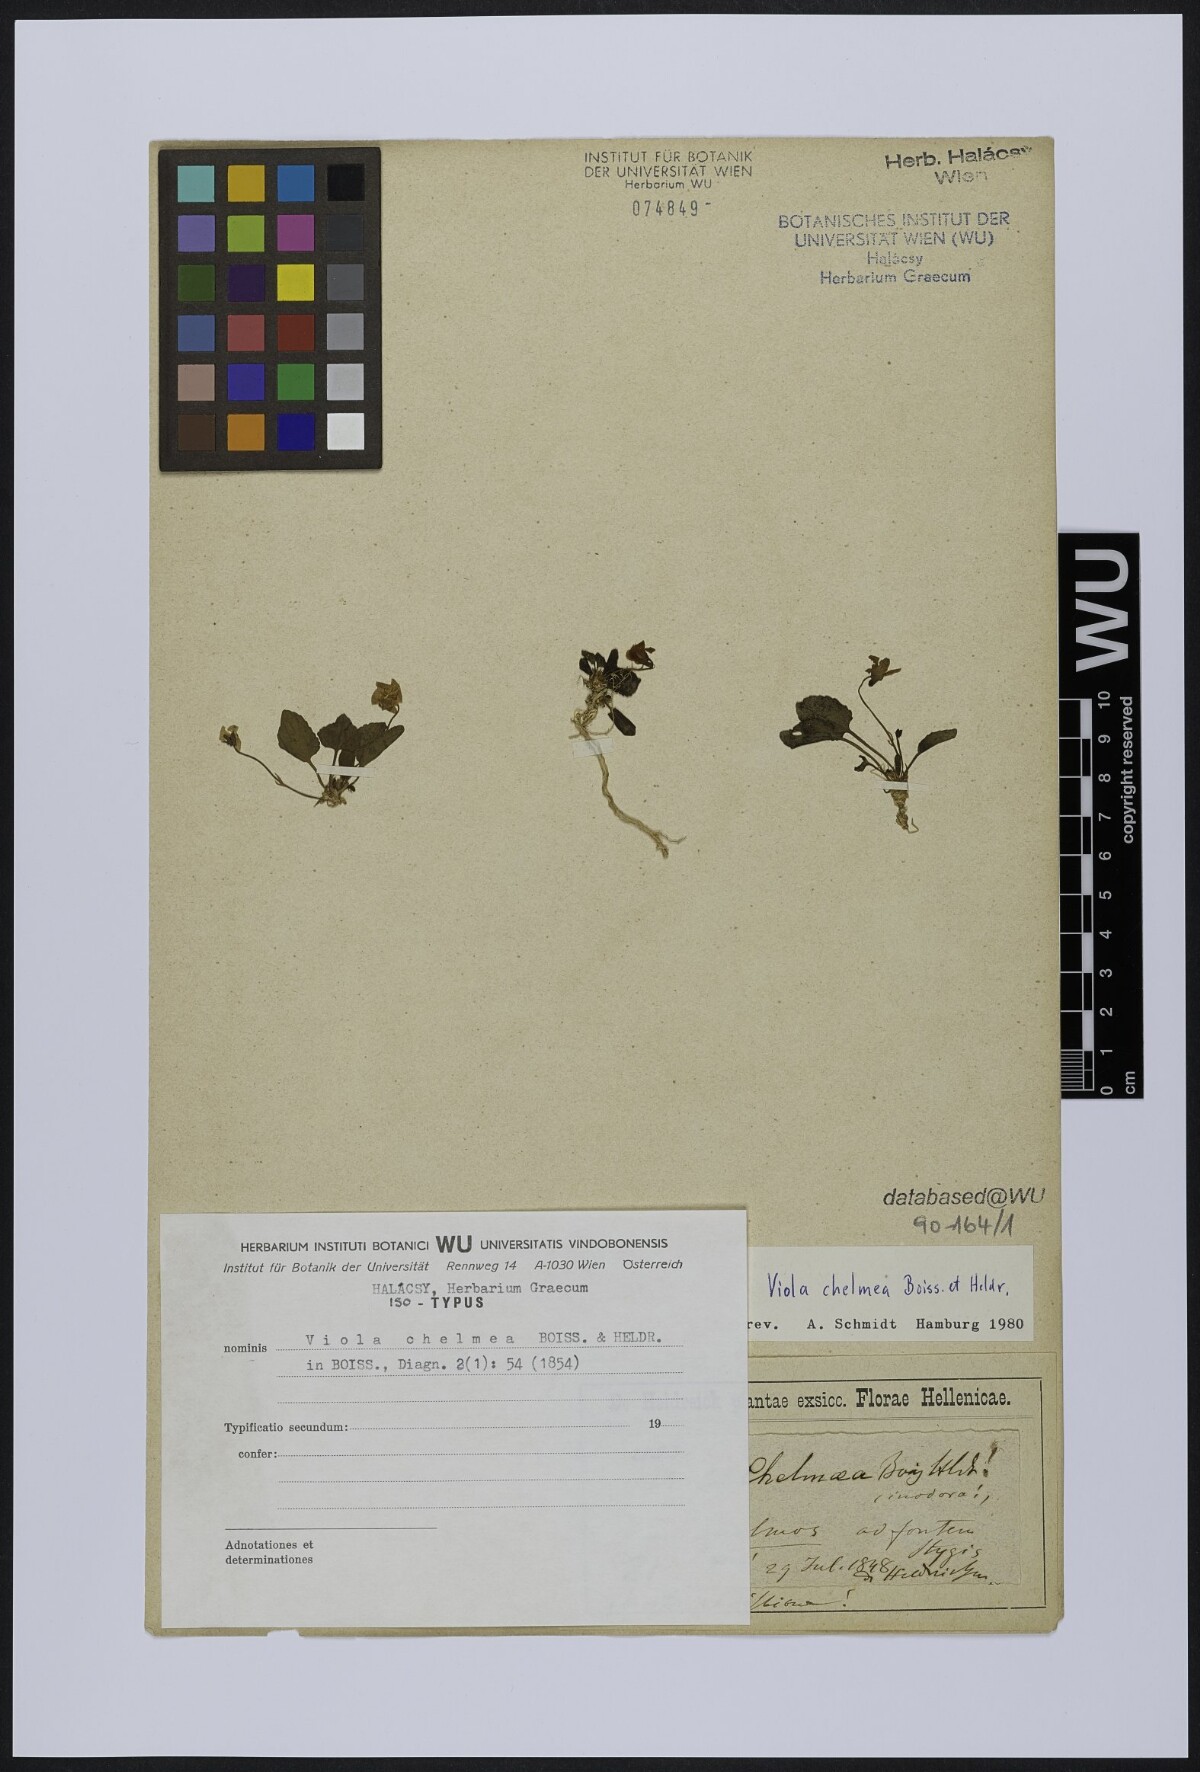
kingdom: Plantae
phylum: Tracheophyta
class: Magnoliopsida
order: Malpighiales
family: Violaceae
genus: Viola
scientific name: Viola chelmea
